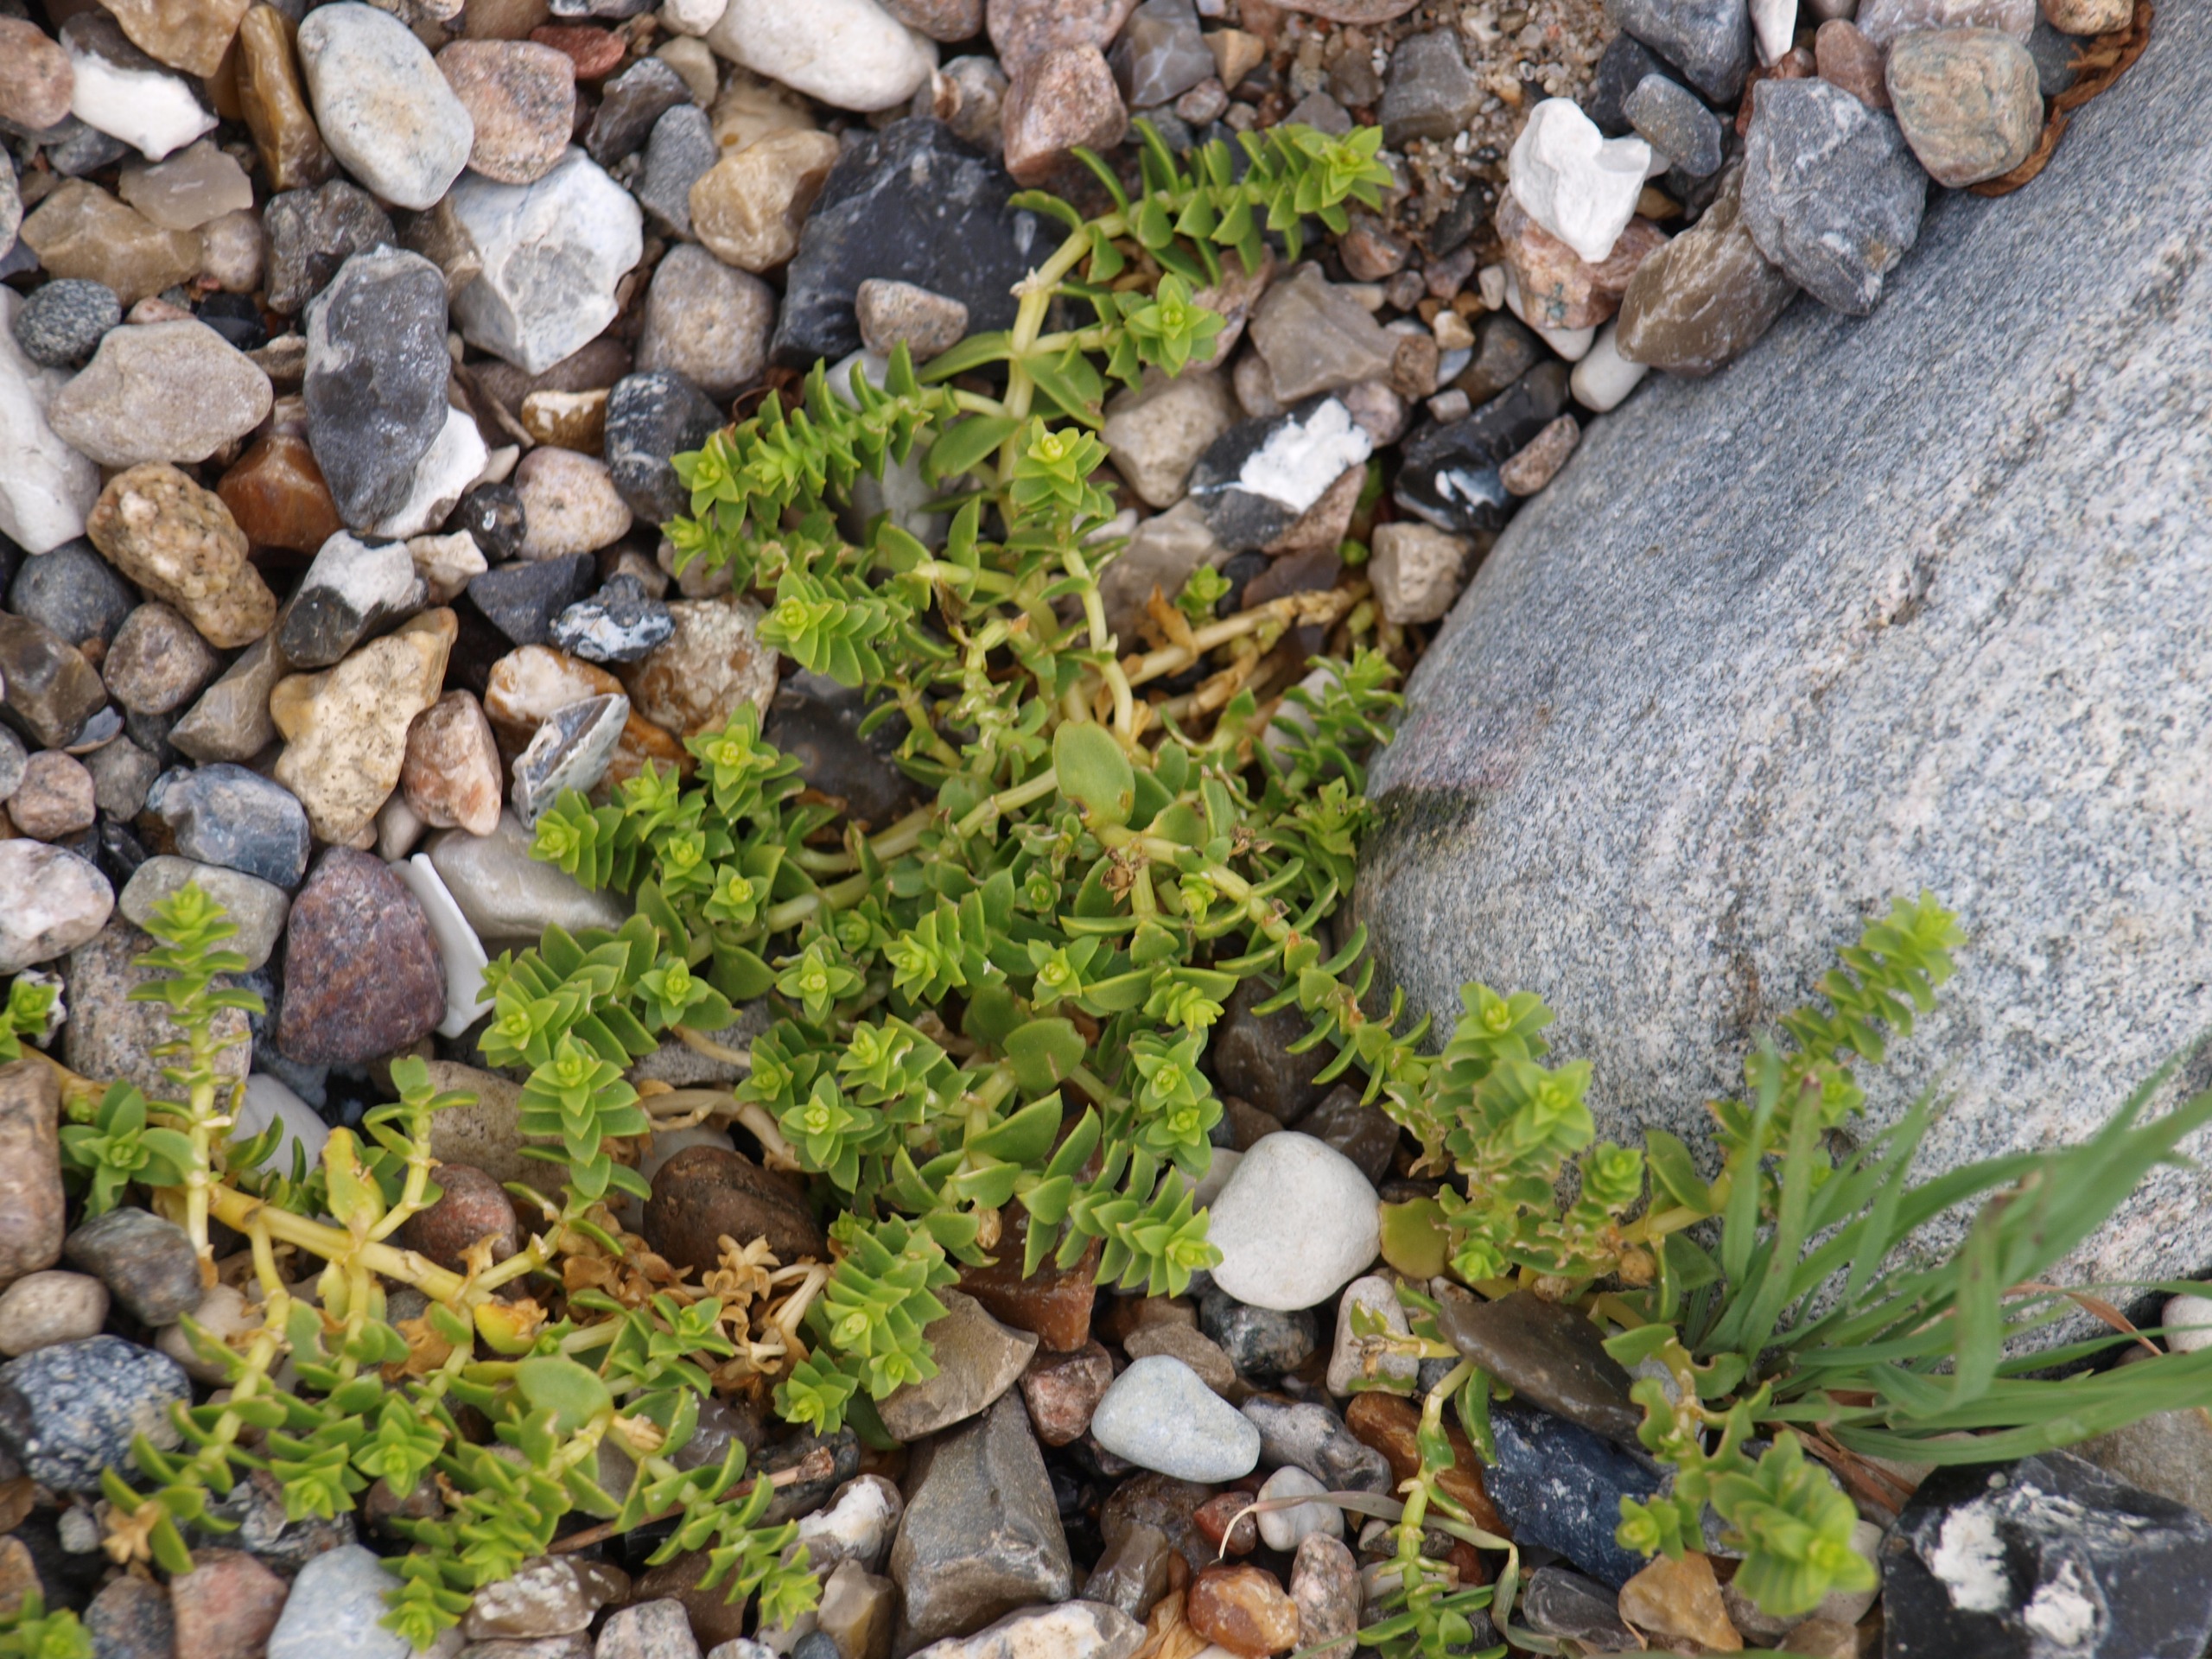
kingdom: Plantae
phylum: Tracheophyta
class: Magnoliopsida
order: Caryophyllales
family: Caryophyllaceae
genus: Honckenya
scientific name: Honckenya peploides
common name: Strandarve
